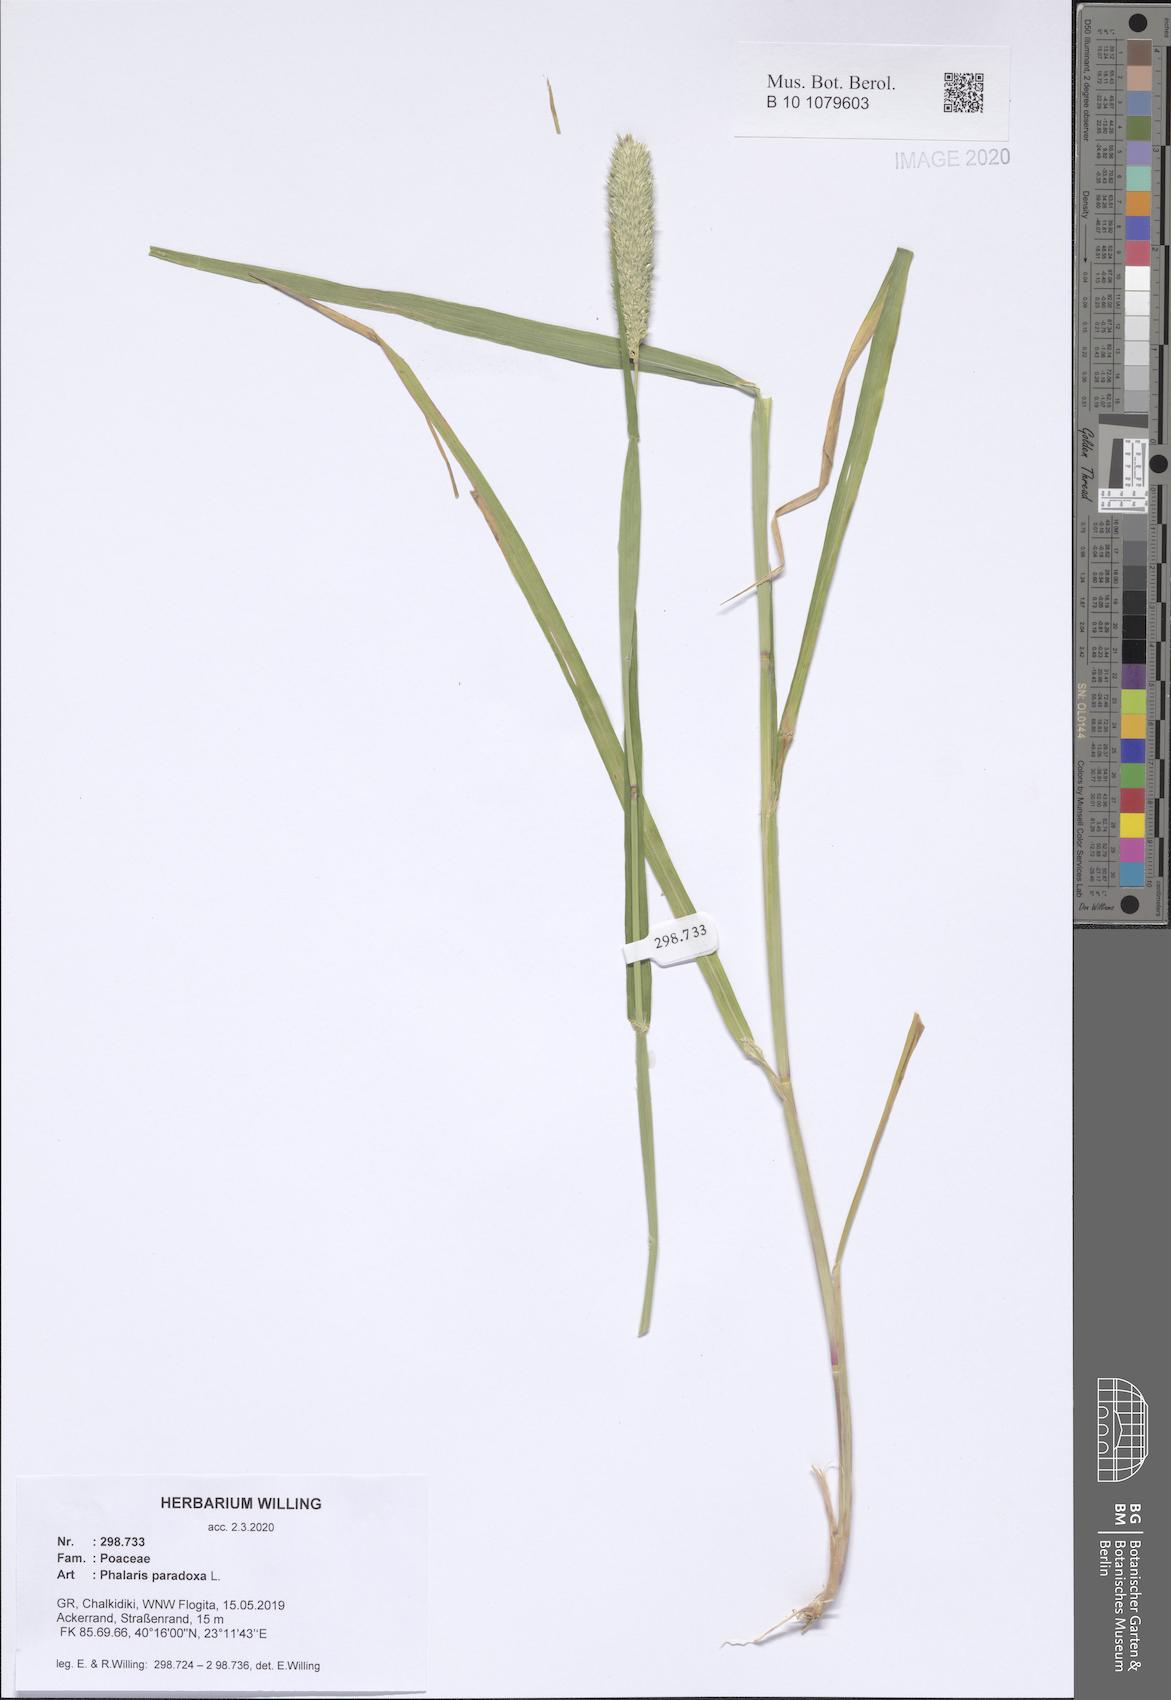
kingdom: Plantae
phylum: Tracheophyta
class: Liliopsida
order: Poales
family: Poaceae
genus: Phalaris
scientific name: Phalaris paradoxa
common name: Awned canary-grass
